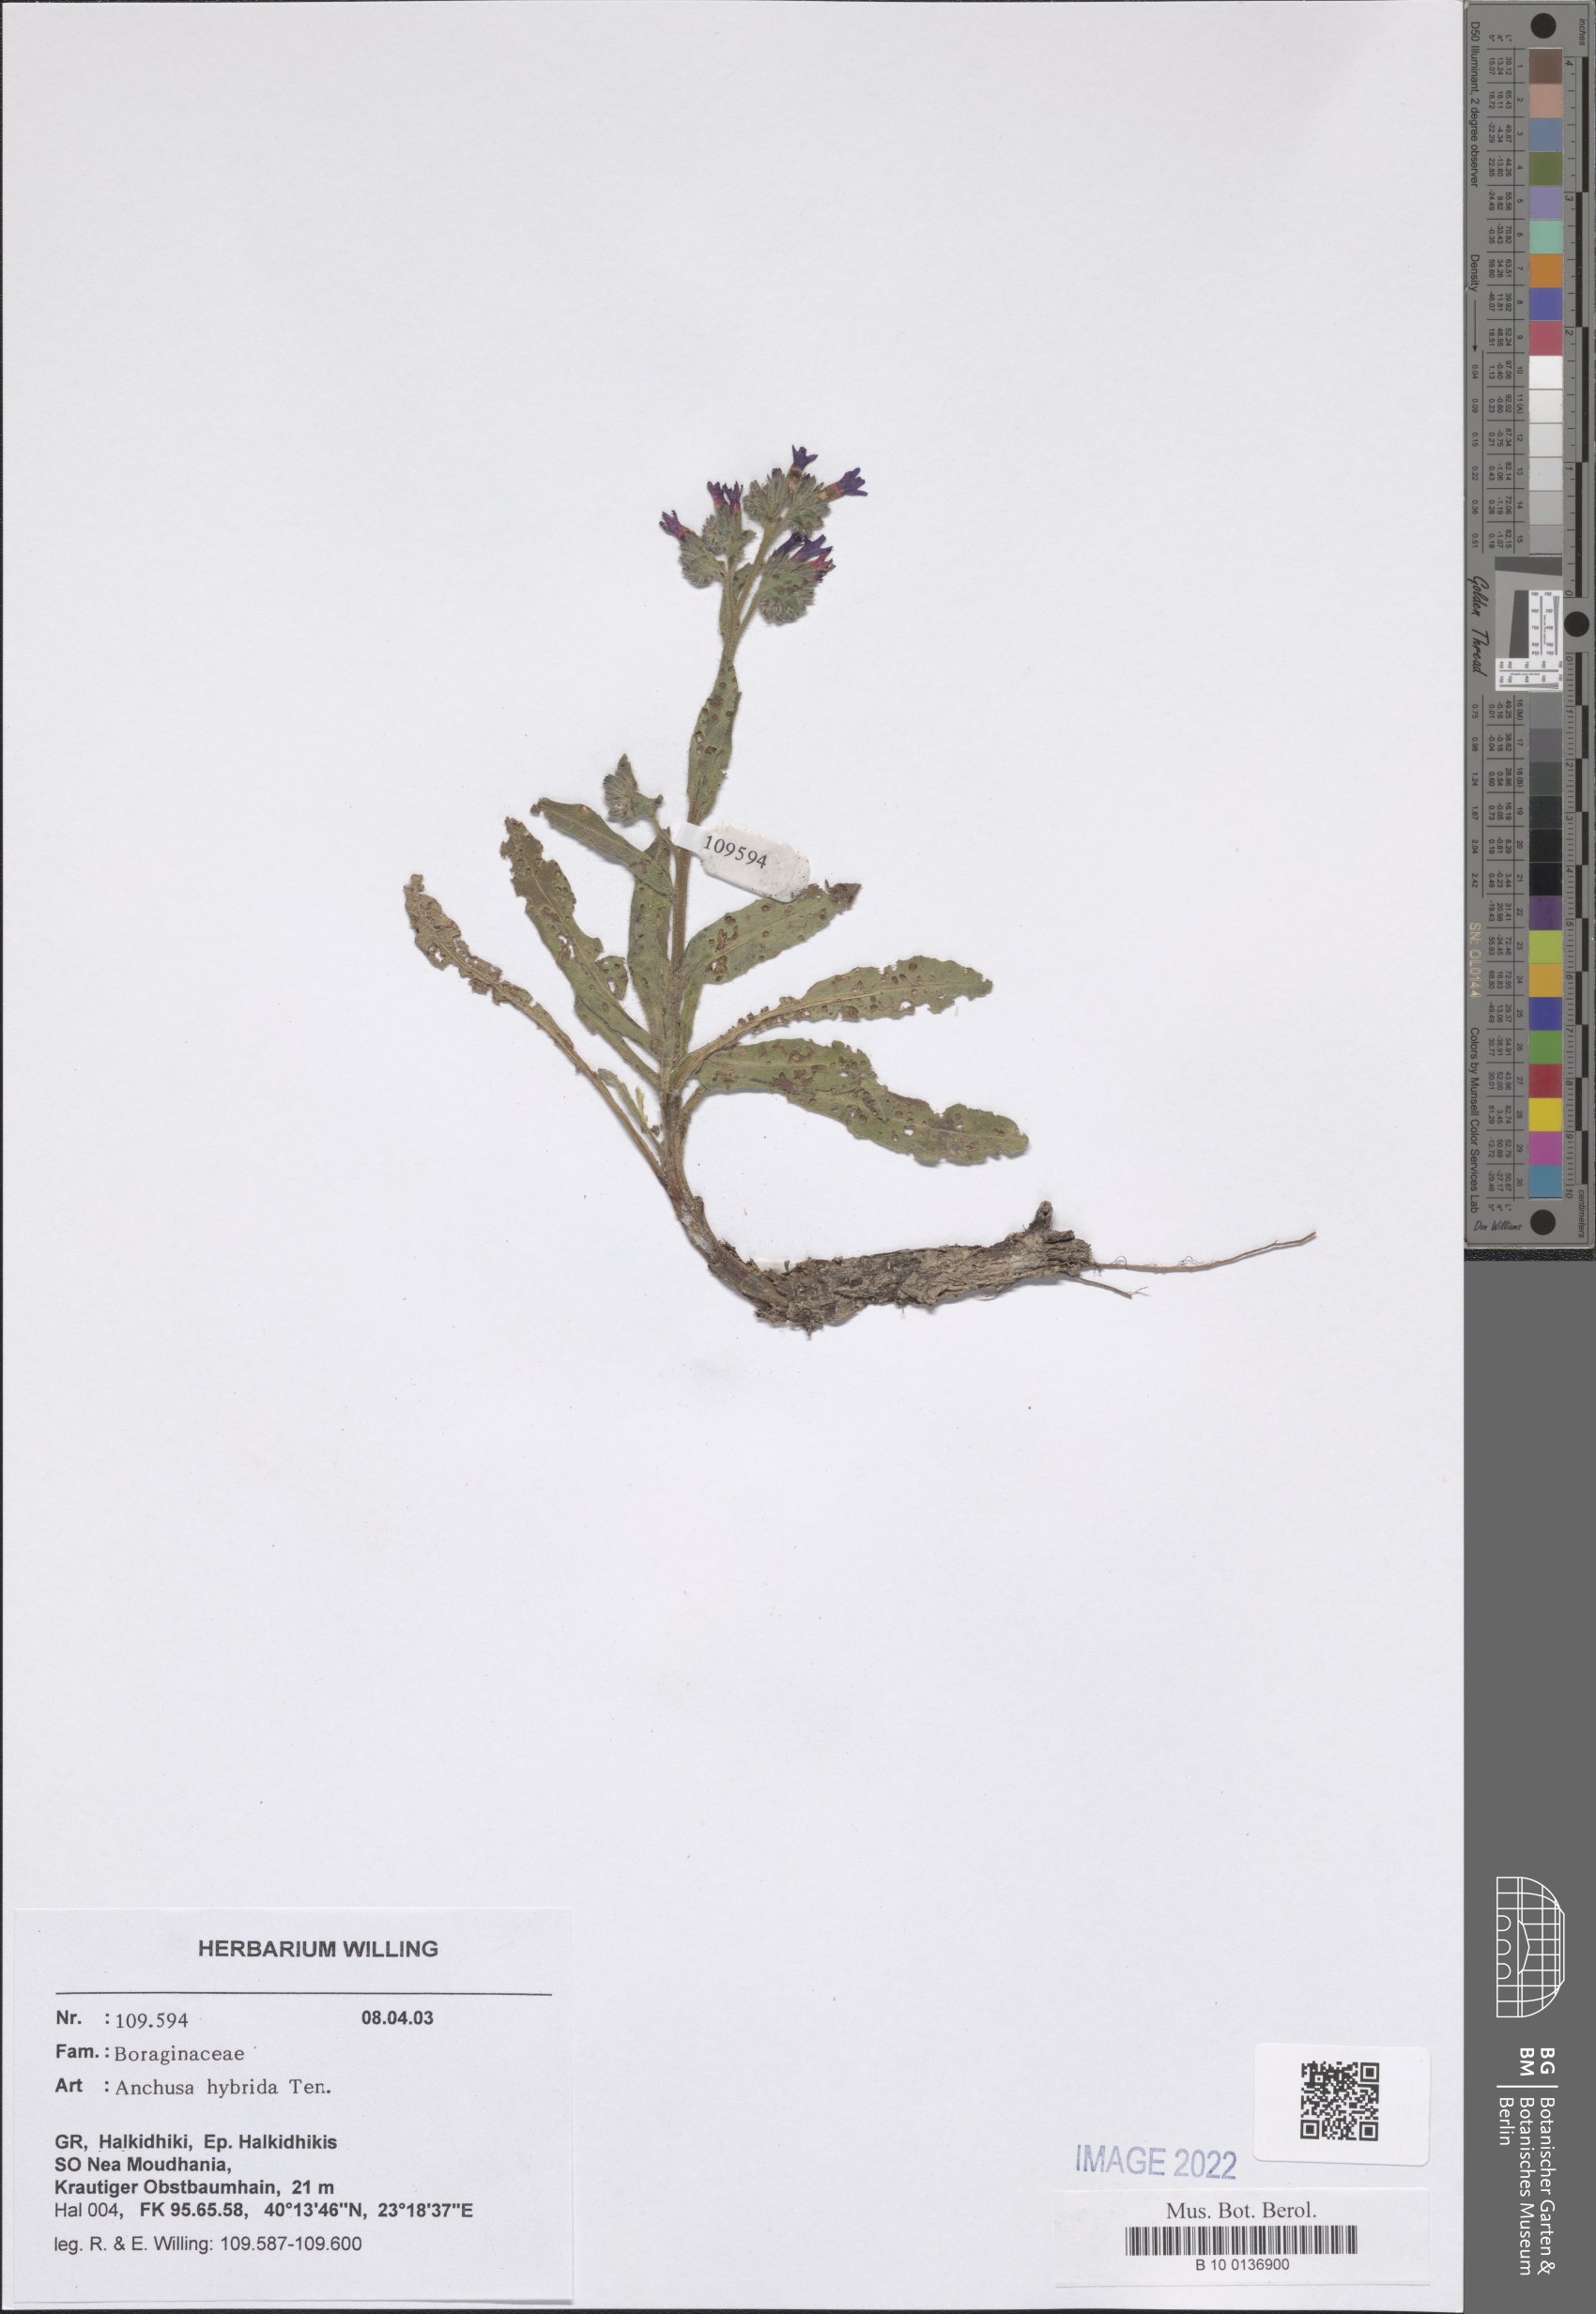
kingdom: Plantae
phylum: Tracheophyta
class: Magnoliopsida
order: Boraginales
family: Boraginaceae
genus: Anchusa
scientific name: Anchusa hybrida
